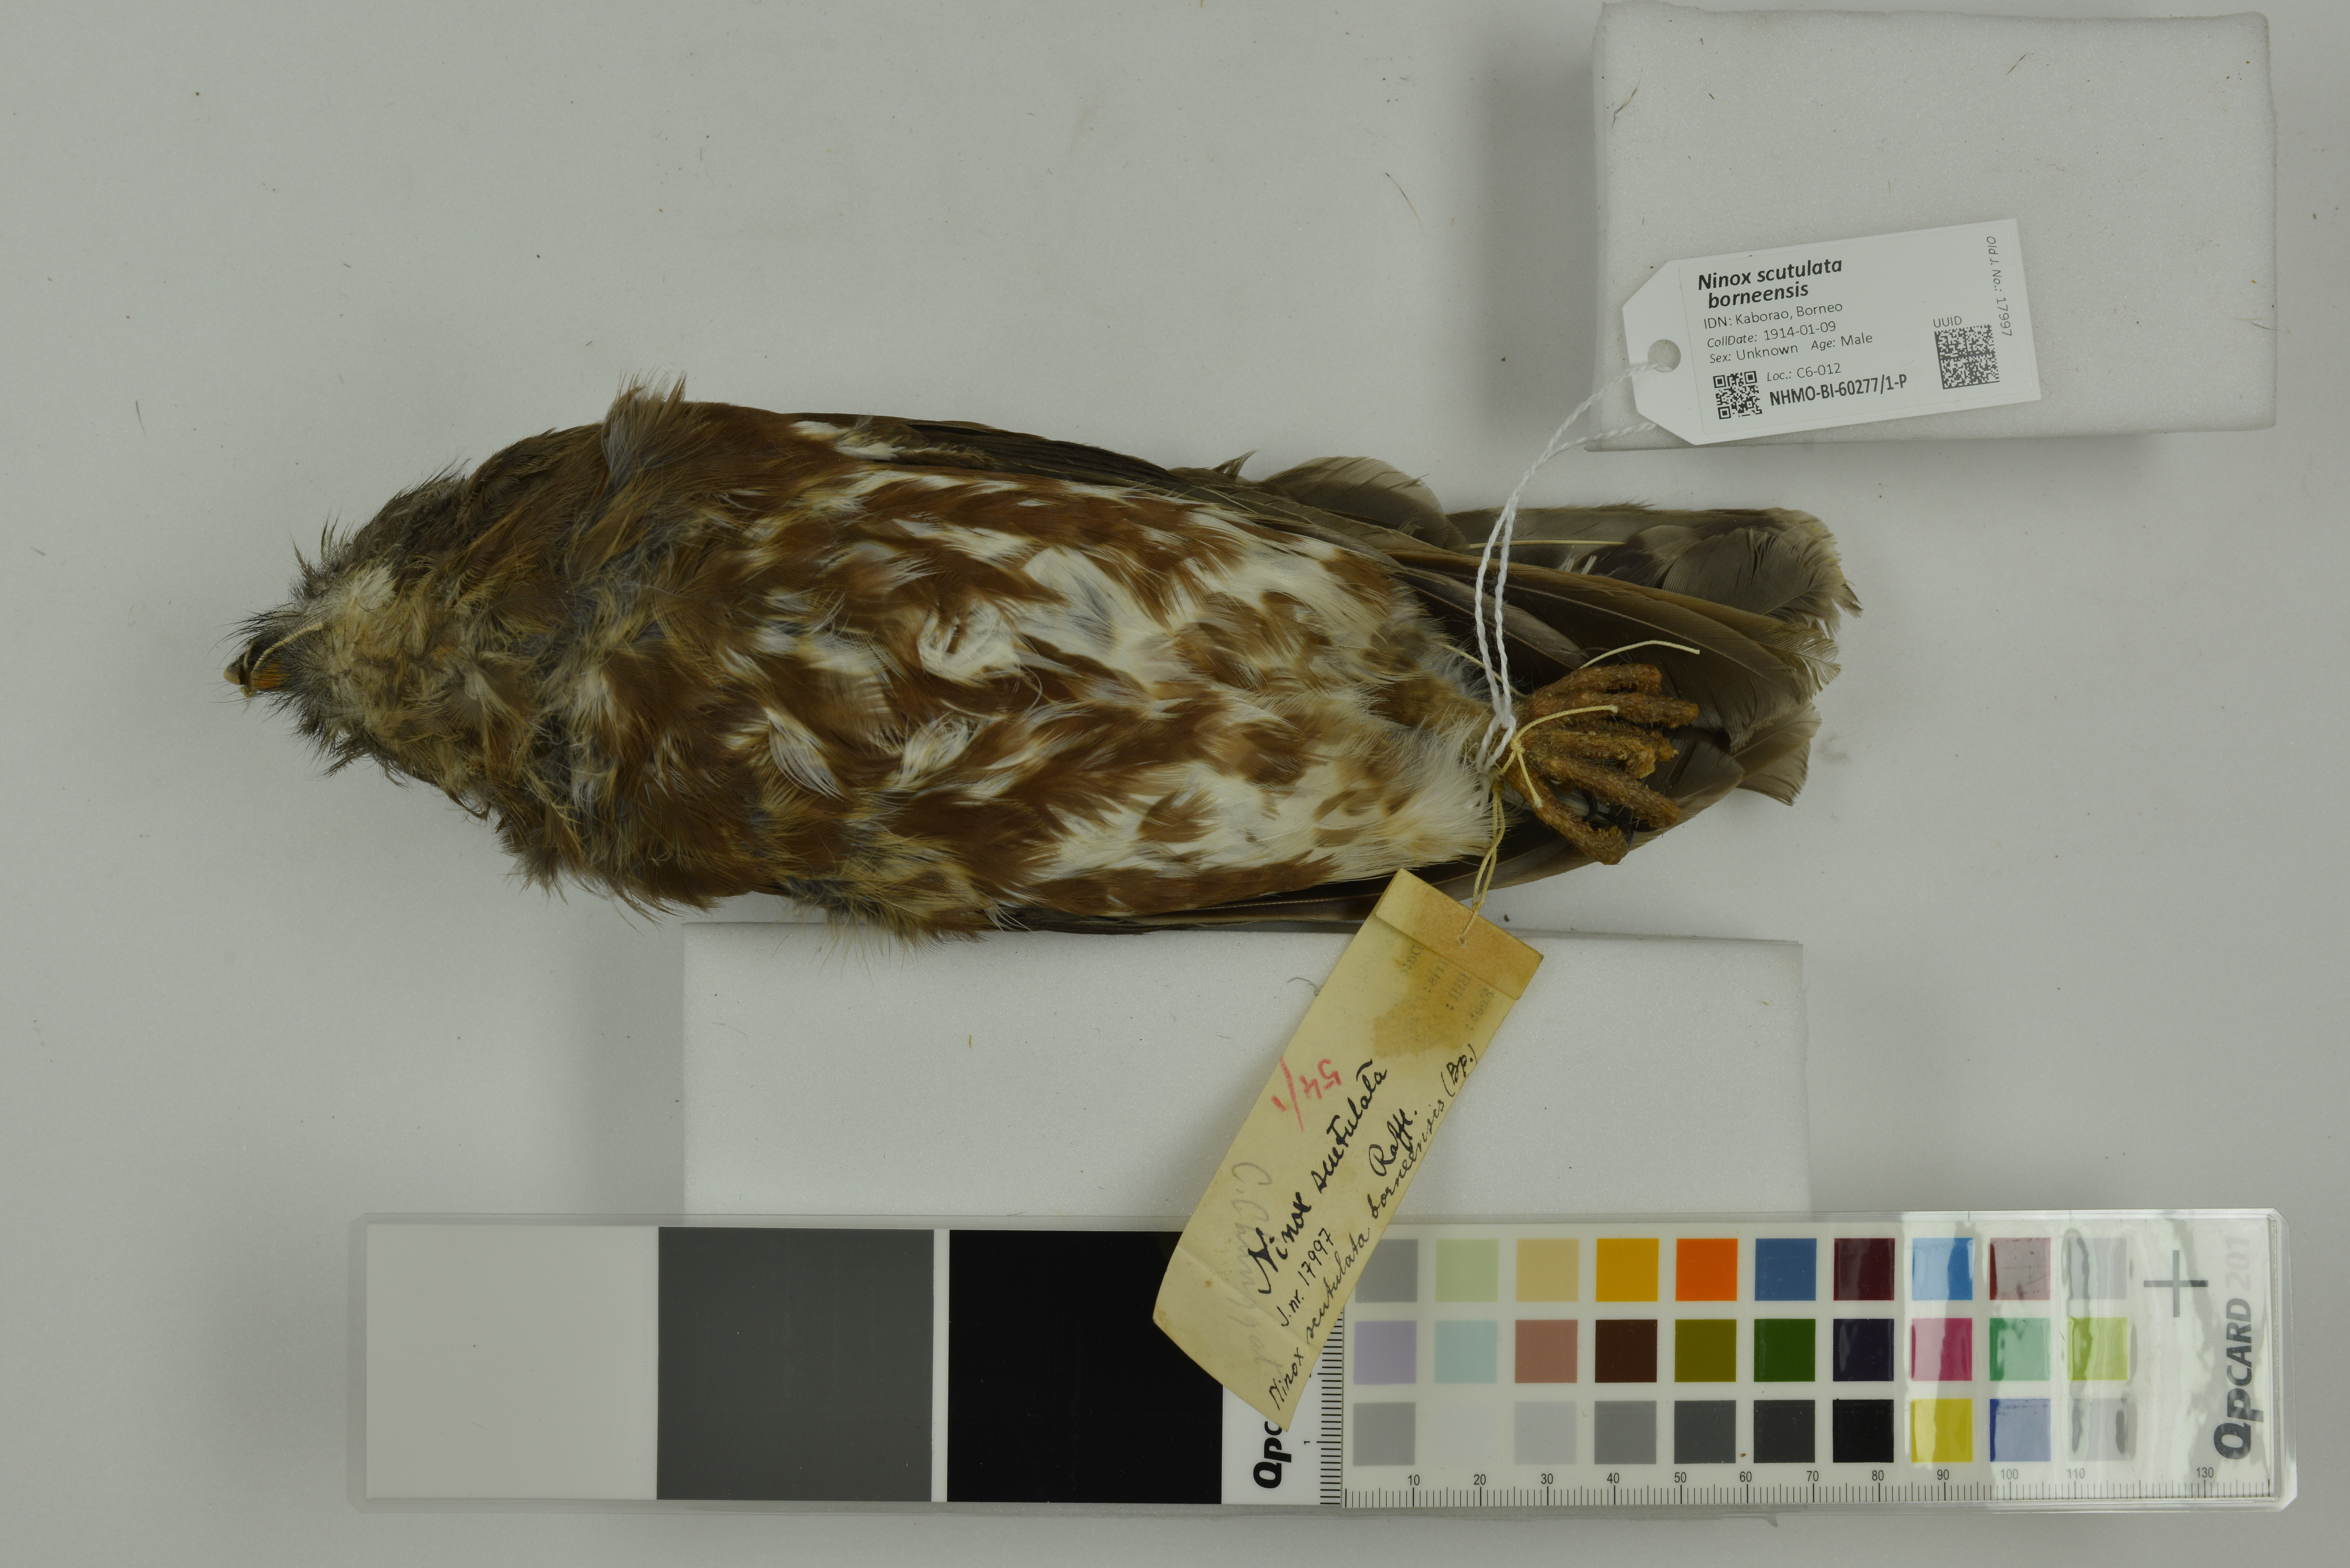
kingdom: Animalia
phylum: Chordata
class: Aves
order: Strigiformes
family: Strigidae
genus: Ninox
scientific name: Ninox scutulata
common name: Brown hawk-owl
